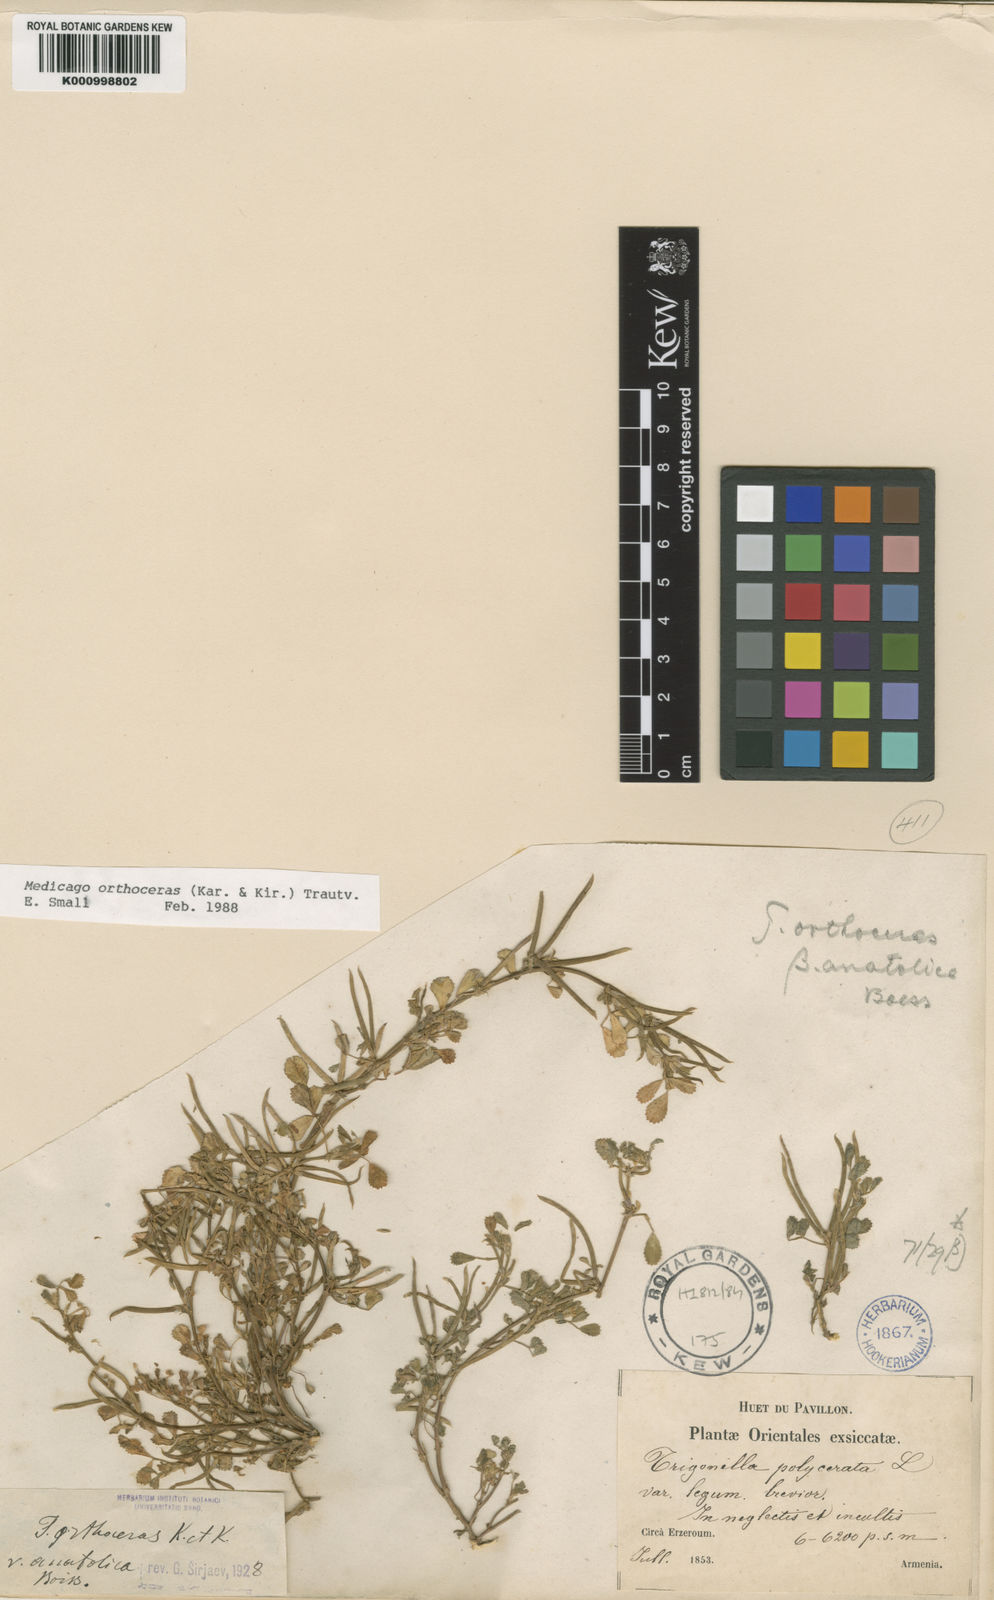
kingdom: Plantae
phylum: Tracheophyta
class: Magnoliopsida
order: Fabales
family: Fabaceae
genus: Medicago
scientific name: Medicago orthoceras
